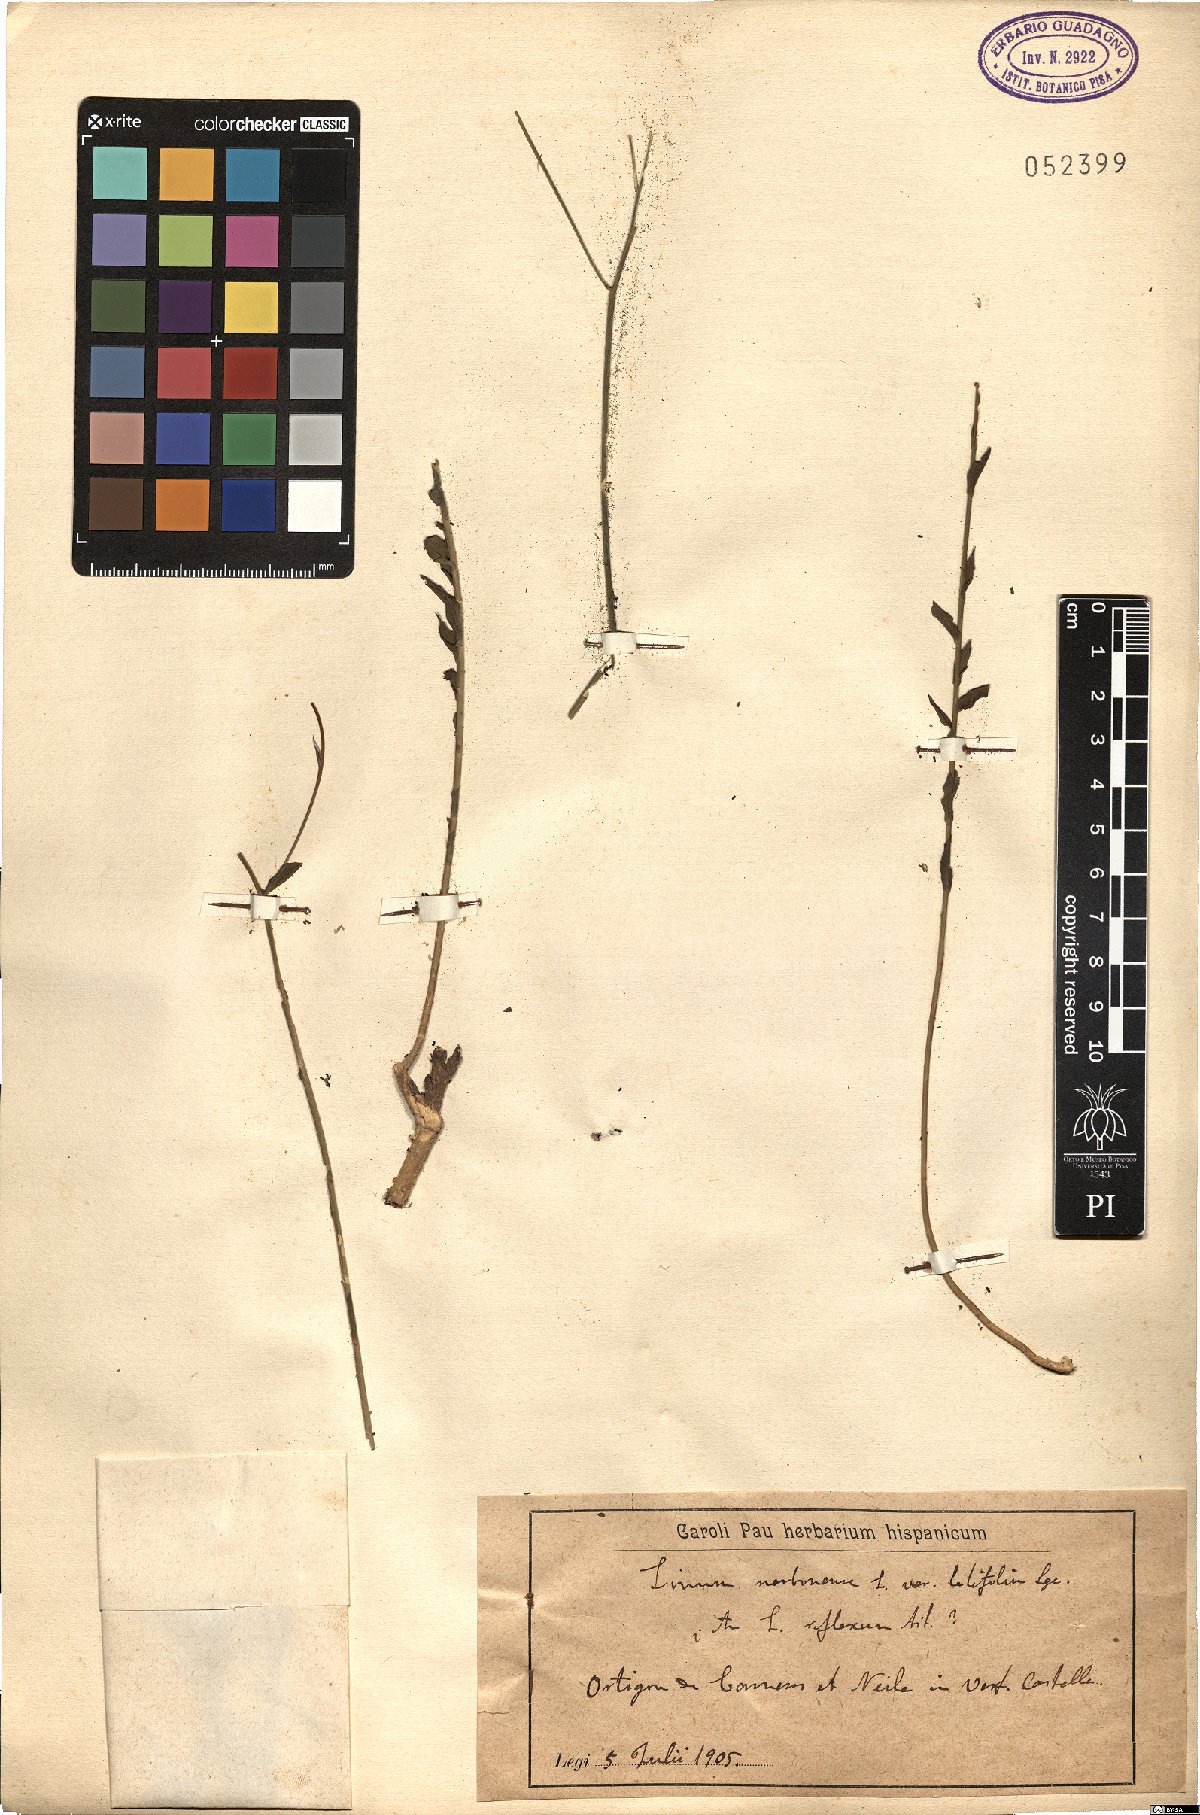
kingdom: Plantae
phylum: Tracheophyta
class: Magnoliopsida
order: Malpighiales
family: Linaceae
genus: Linum
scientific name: Linum narbonense
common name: Flax
